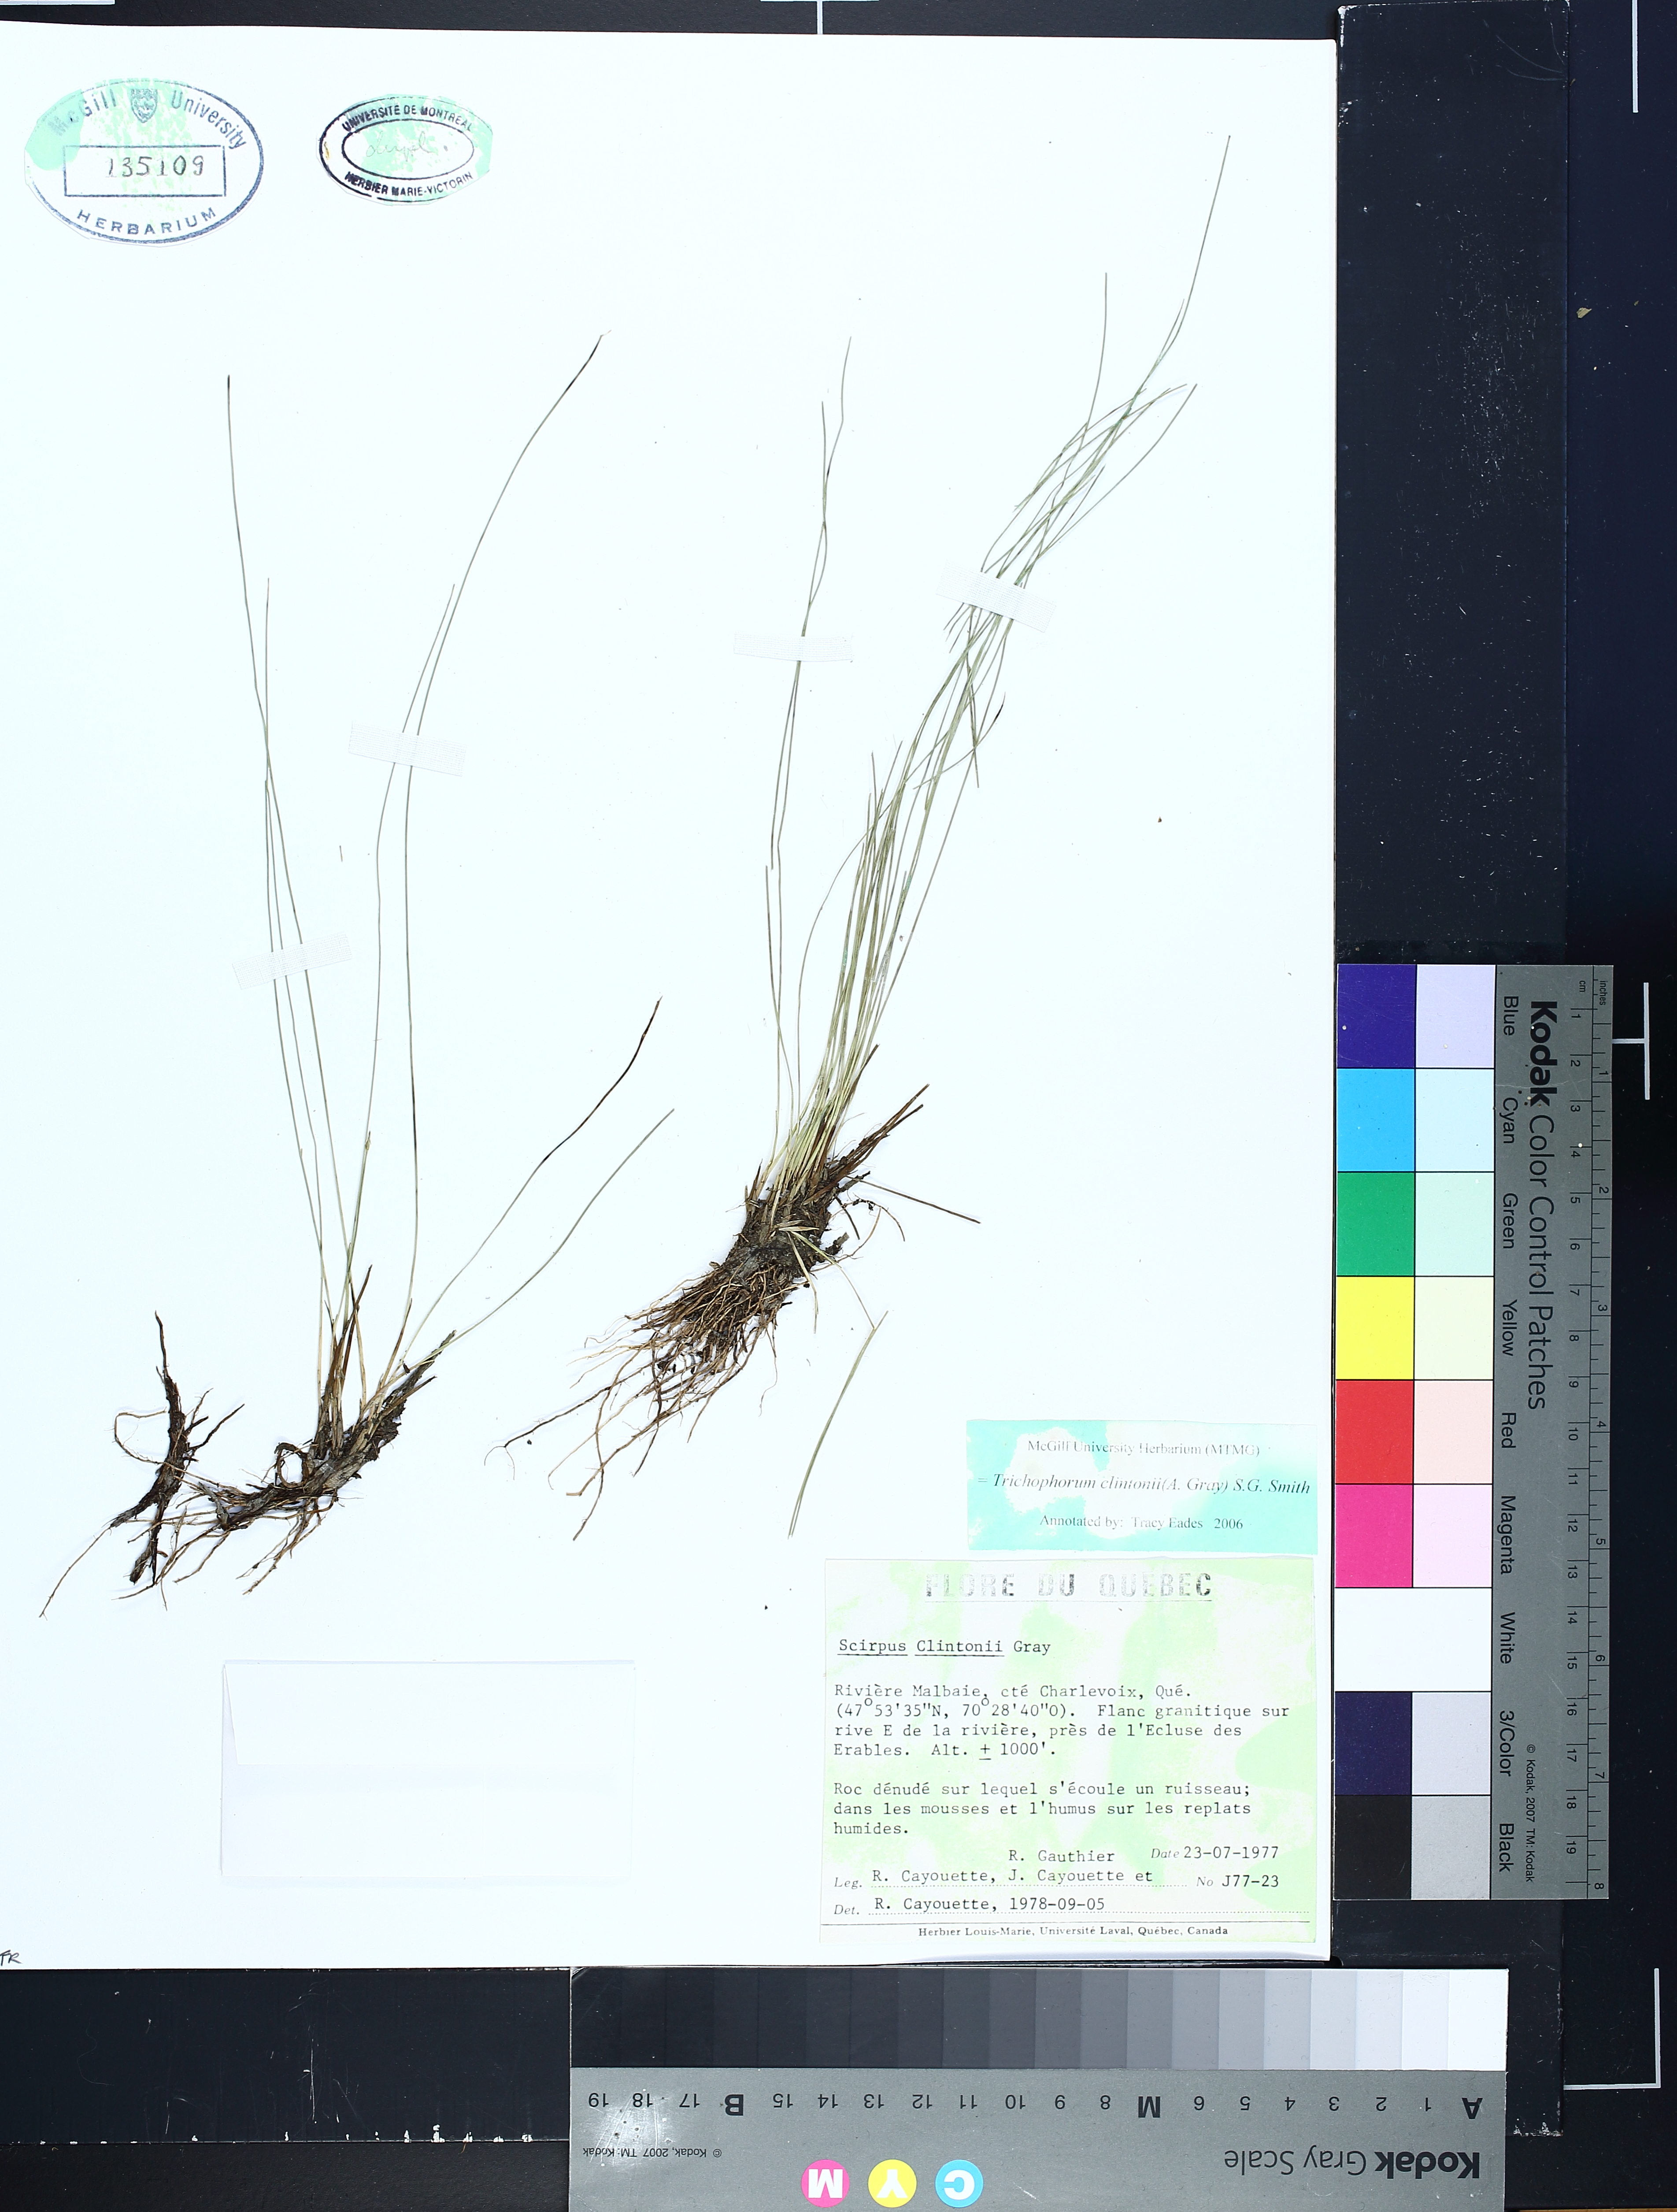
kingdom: Plantae
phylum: Tracheophyta
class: Liliopsida
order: Poales
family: Cyperaceae
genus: Trichophorum
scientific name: Trichophorum clintonii
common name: Clinton's bulrush
